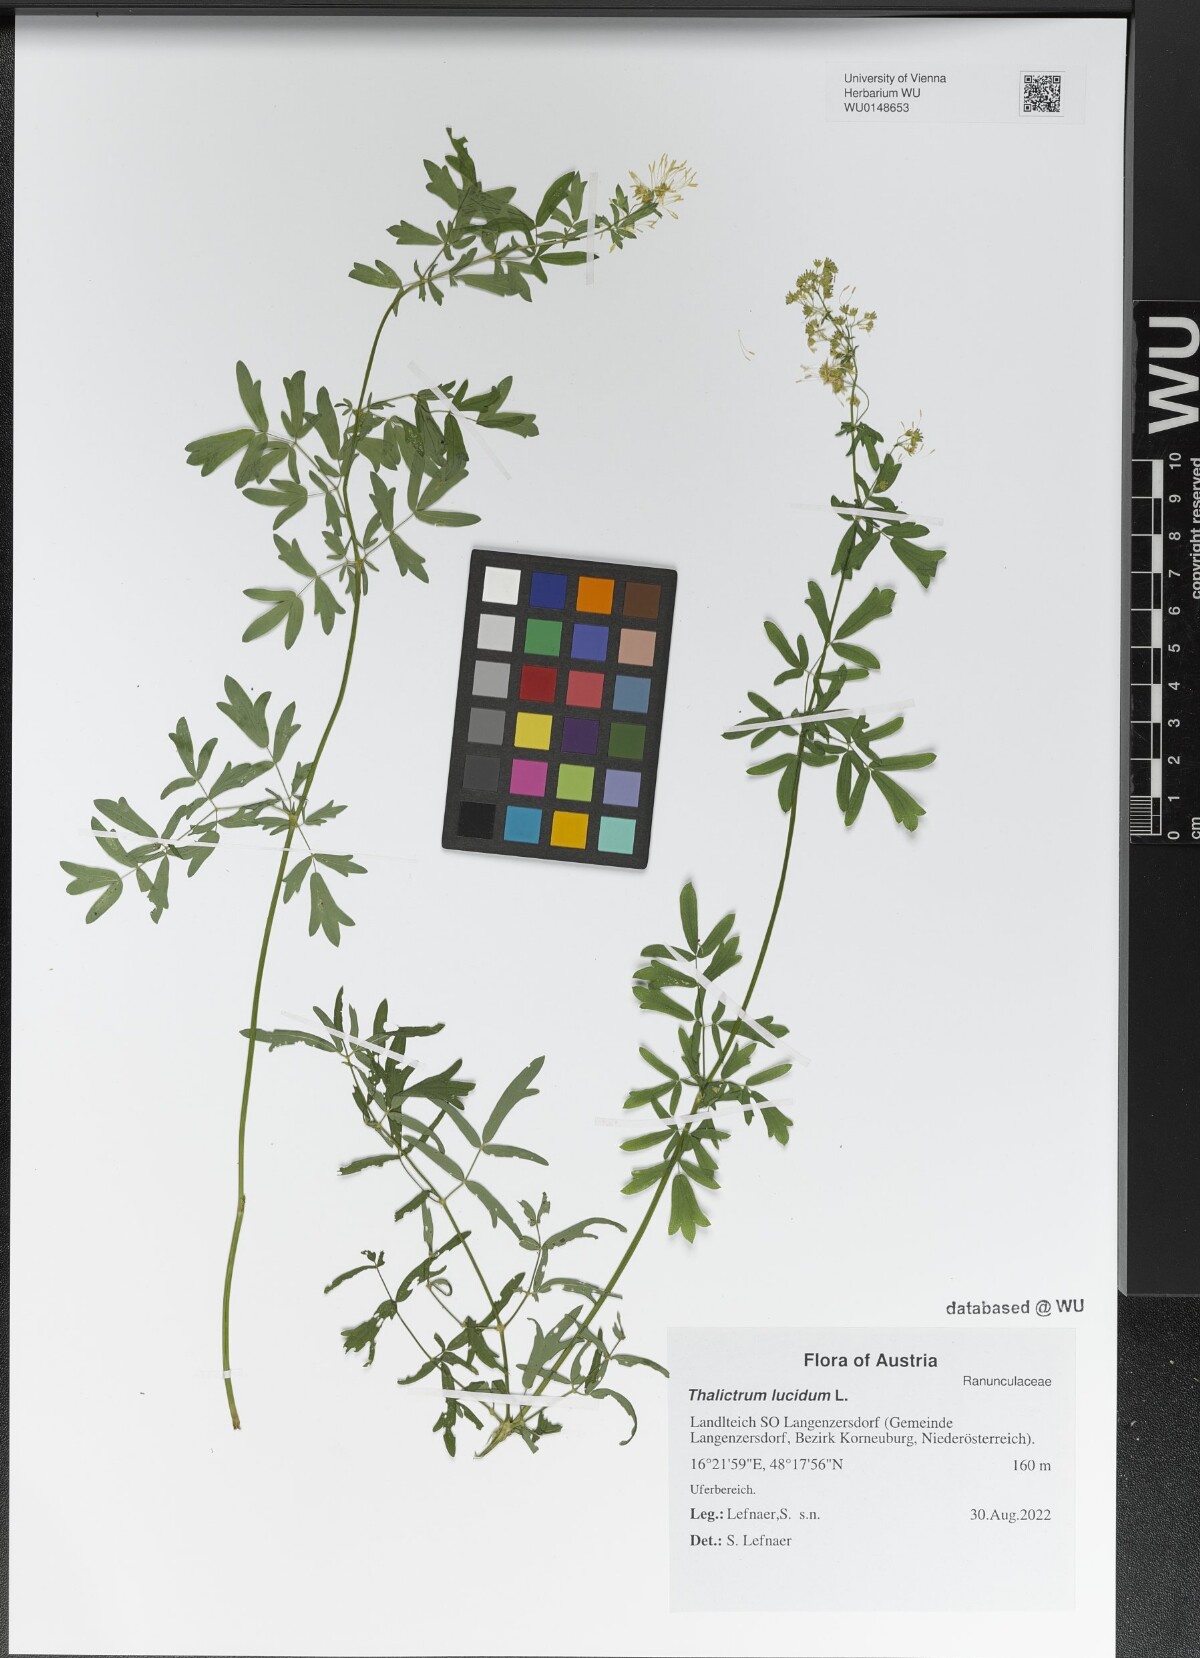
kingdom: Plantae
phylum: Tracheophyta
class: Magnoliopsida
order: Ranunculales
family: Ranunculaceae
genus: Thalictrum
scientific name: Thalictrum lucidum
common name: Shining meadow-rue
